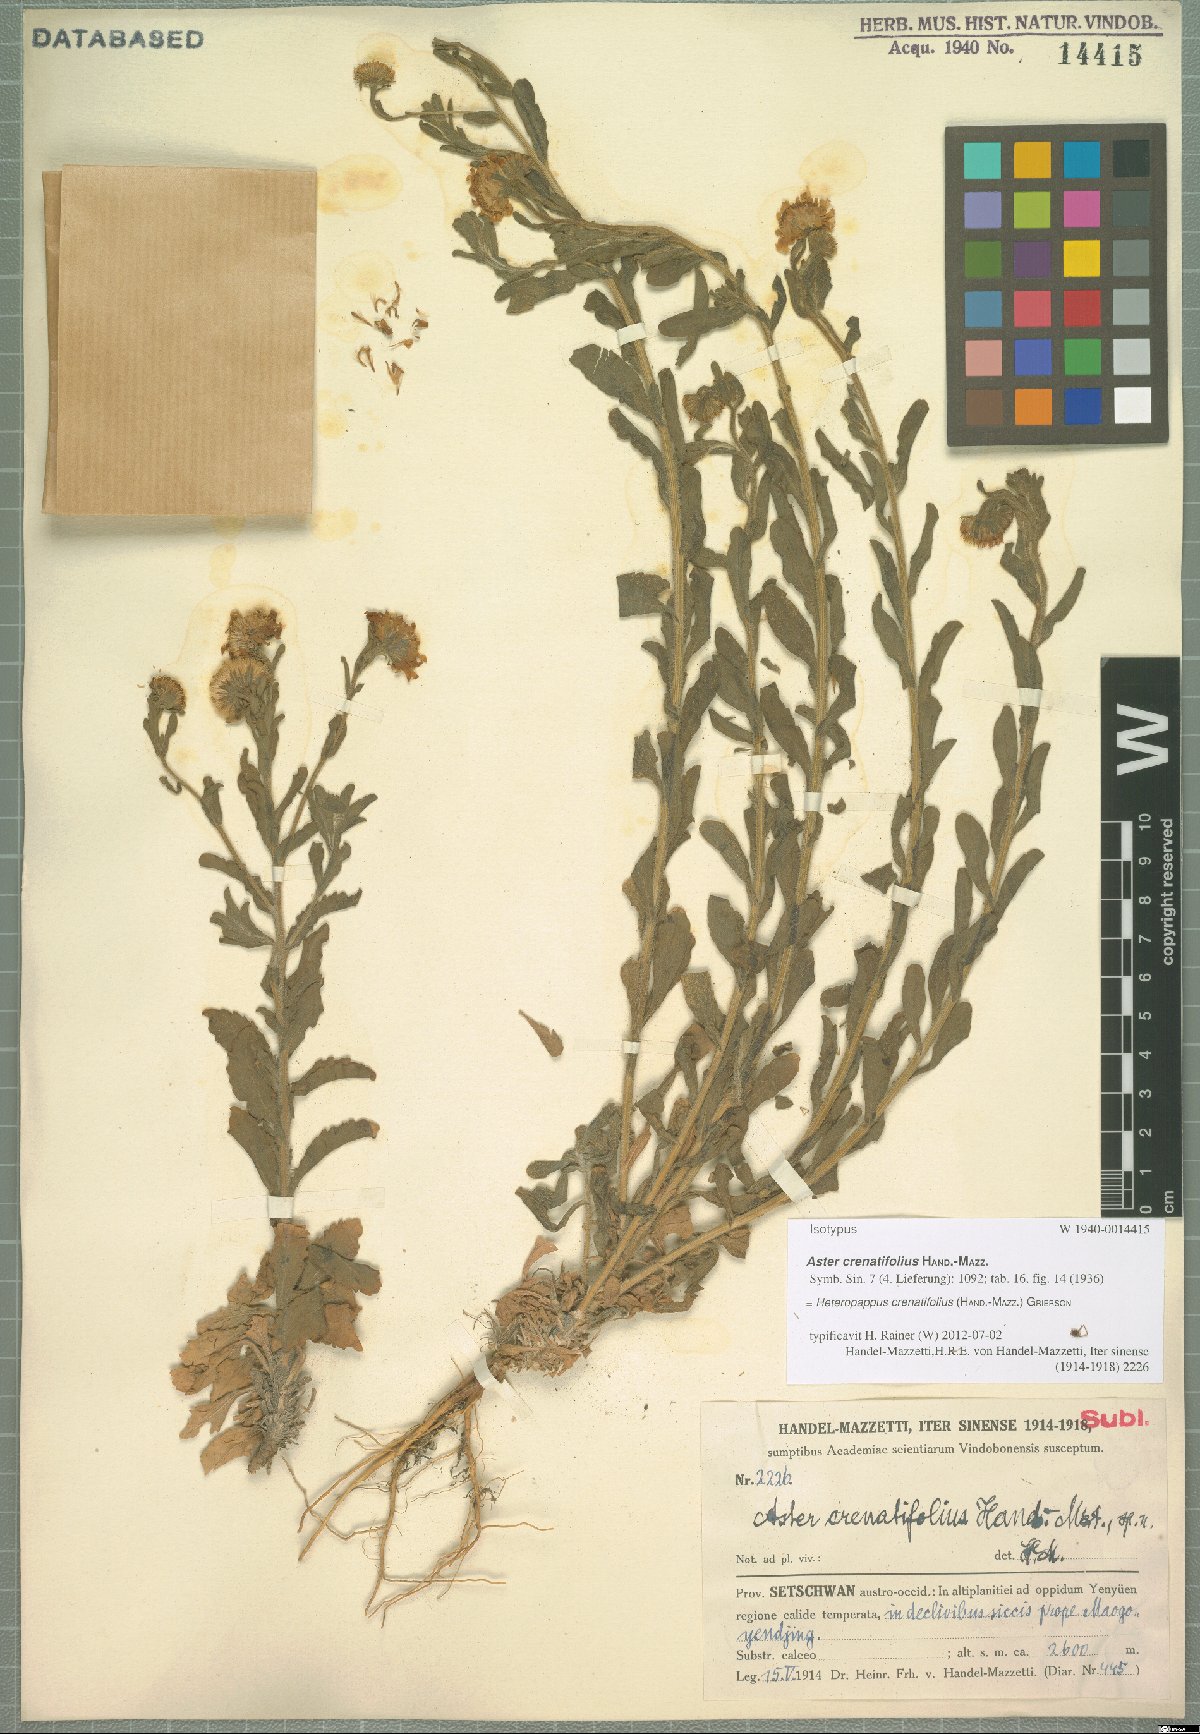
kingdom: Plantae
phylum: Tracheophyta
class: Magnoliopsida
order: Asterales
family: Asteraceae
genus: Heteropappus
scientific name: Heteropappus crenatifolius
